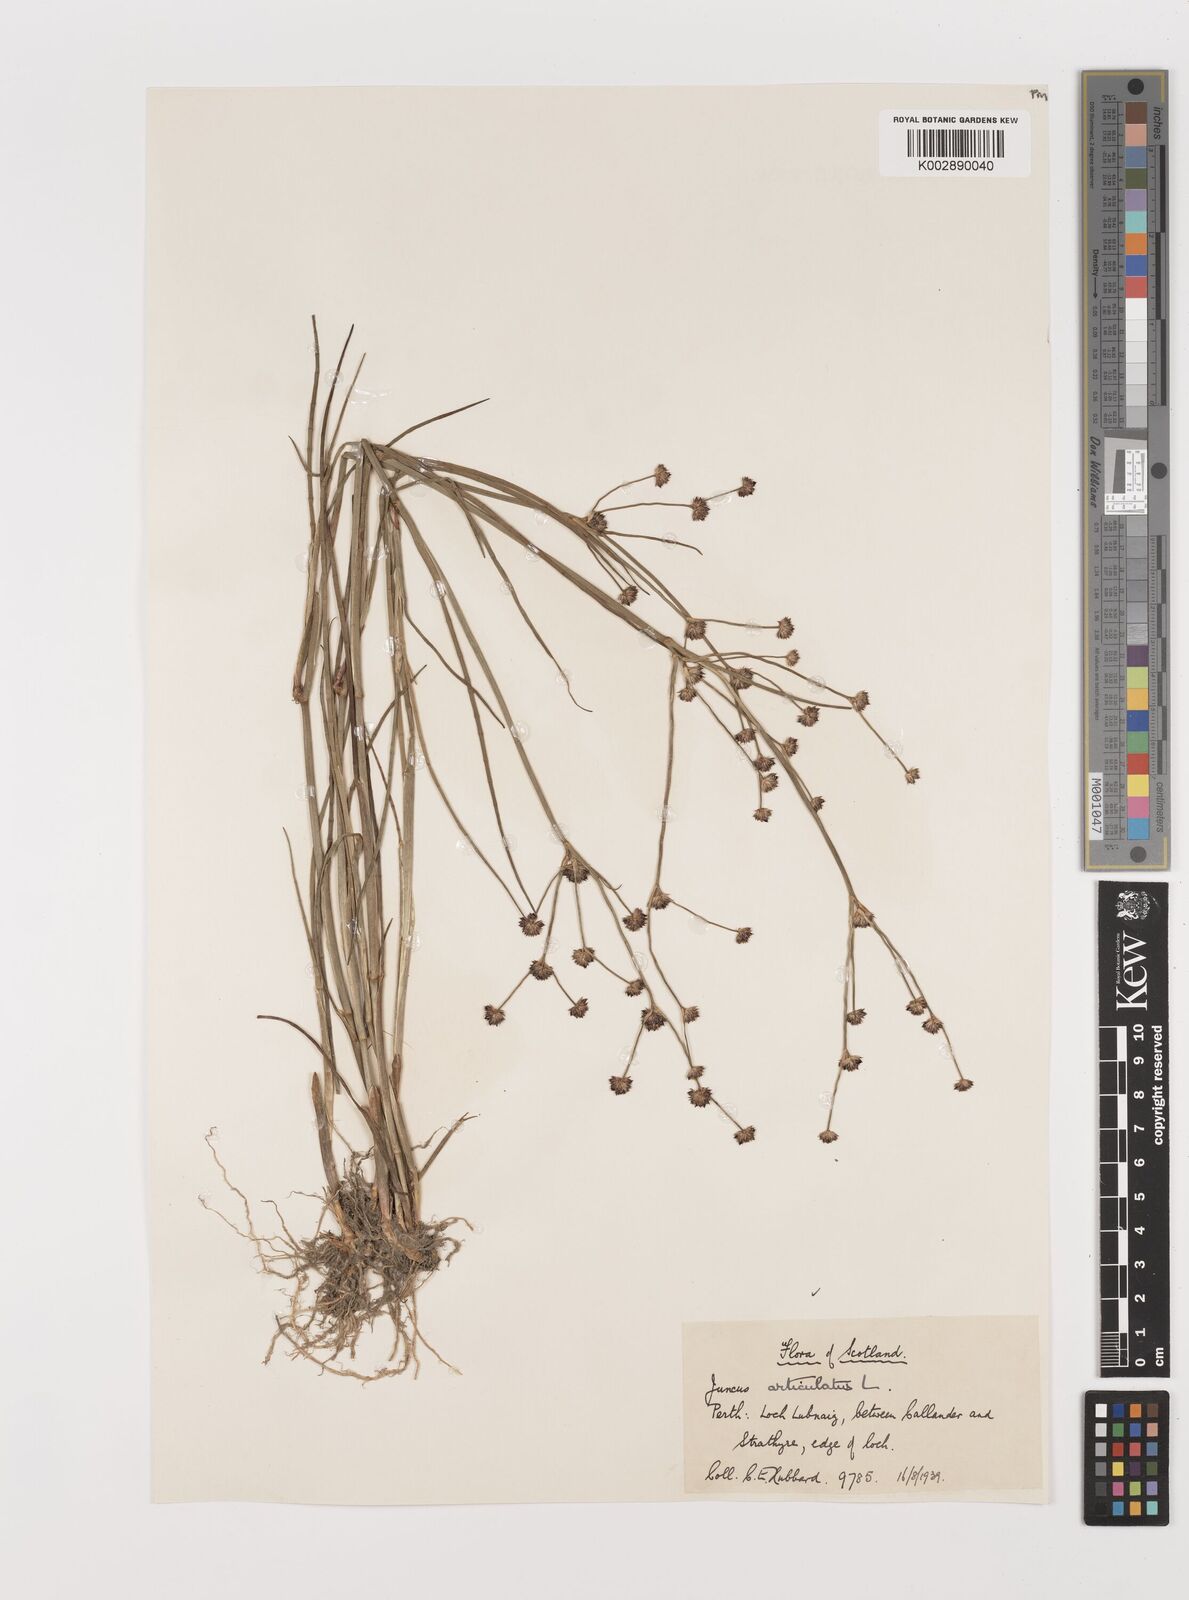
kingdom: Plantae
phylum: Tracheophyta
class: Liliopsida
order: Poales
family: Juncaceae
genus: Juncus
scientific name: Juncus articulatus
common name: Jointed rush
